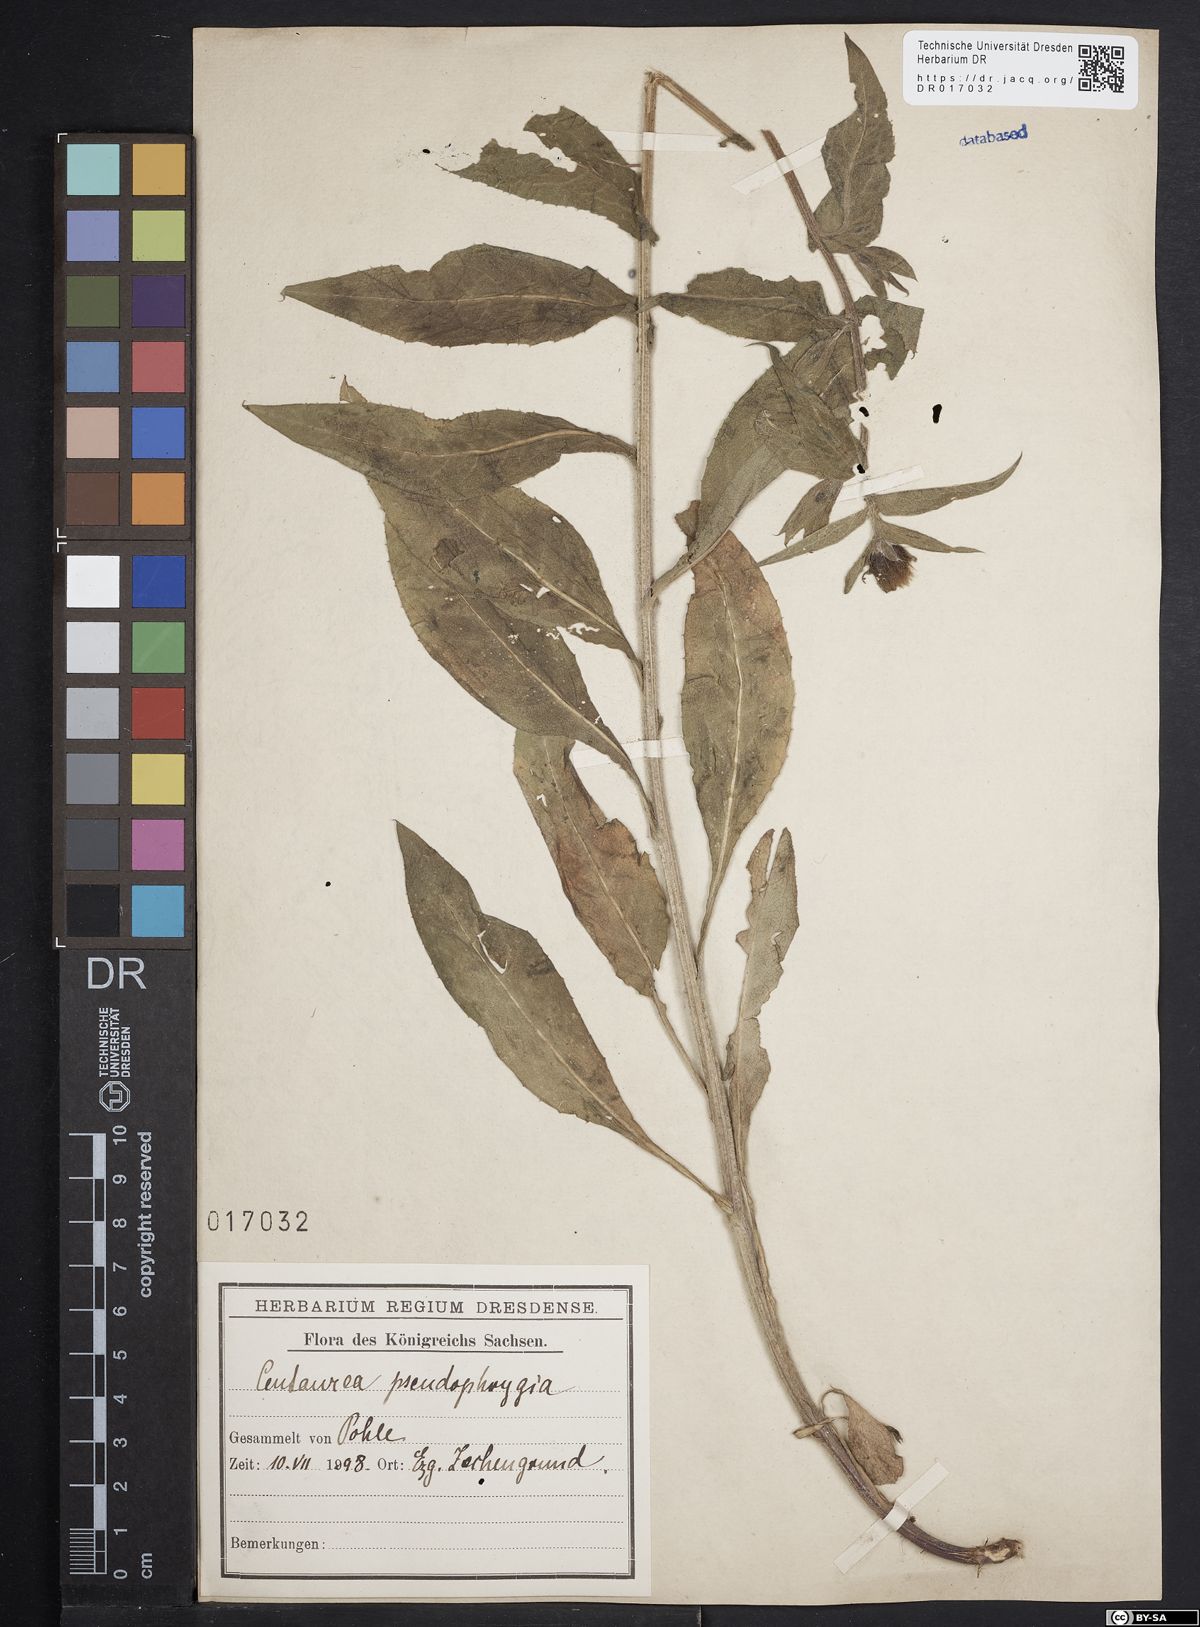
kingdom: Plantae
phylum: Tracheophyta
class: Magnoliopsida
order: Asterales
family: Asteraceae
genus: Centaurea
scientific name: Centaurea pseudophrygia
